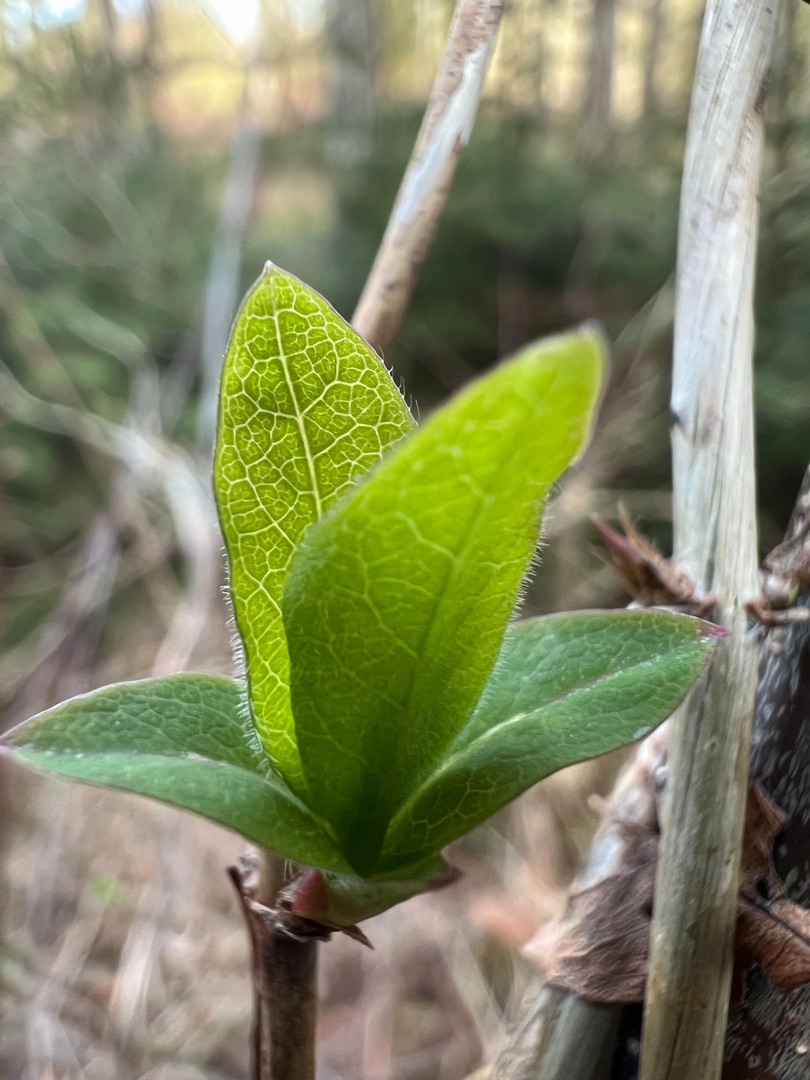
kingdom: Plantae
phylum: Tracheophyta
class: Magnoliopsida
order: Dipsacales
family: Caprifoliaceae
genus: Lonicera
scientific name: Lonicera periclymenum
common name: Almindelig gedeblad
